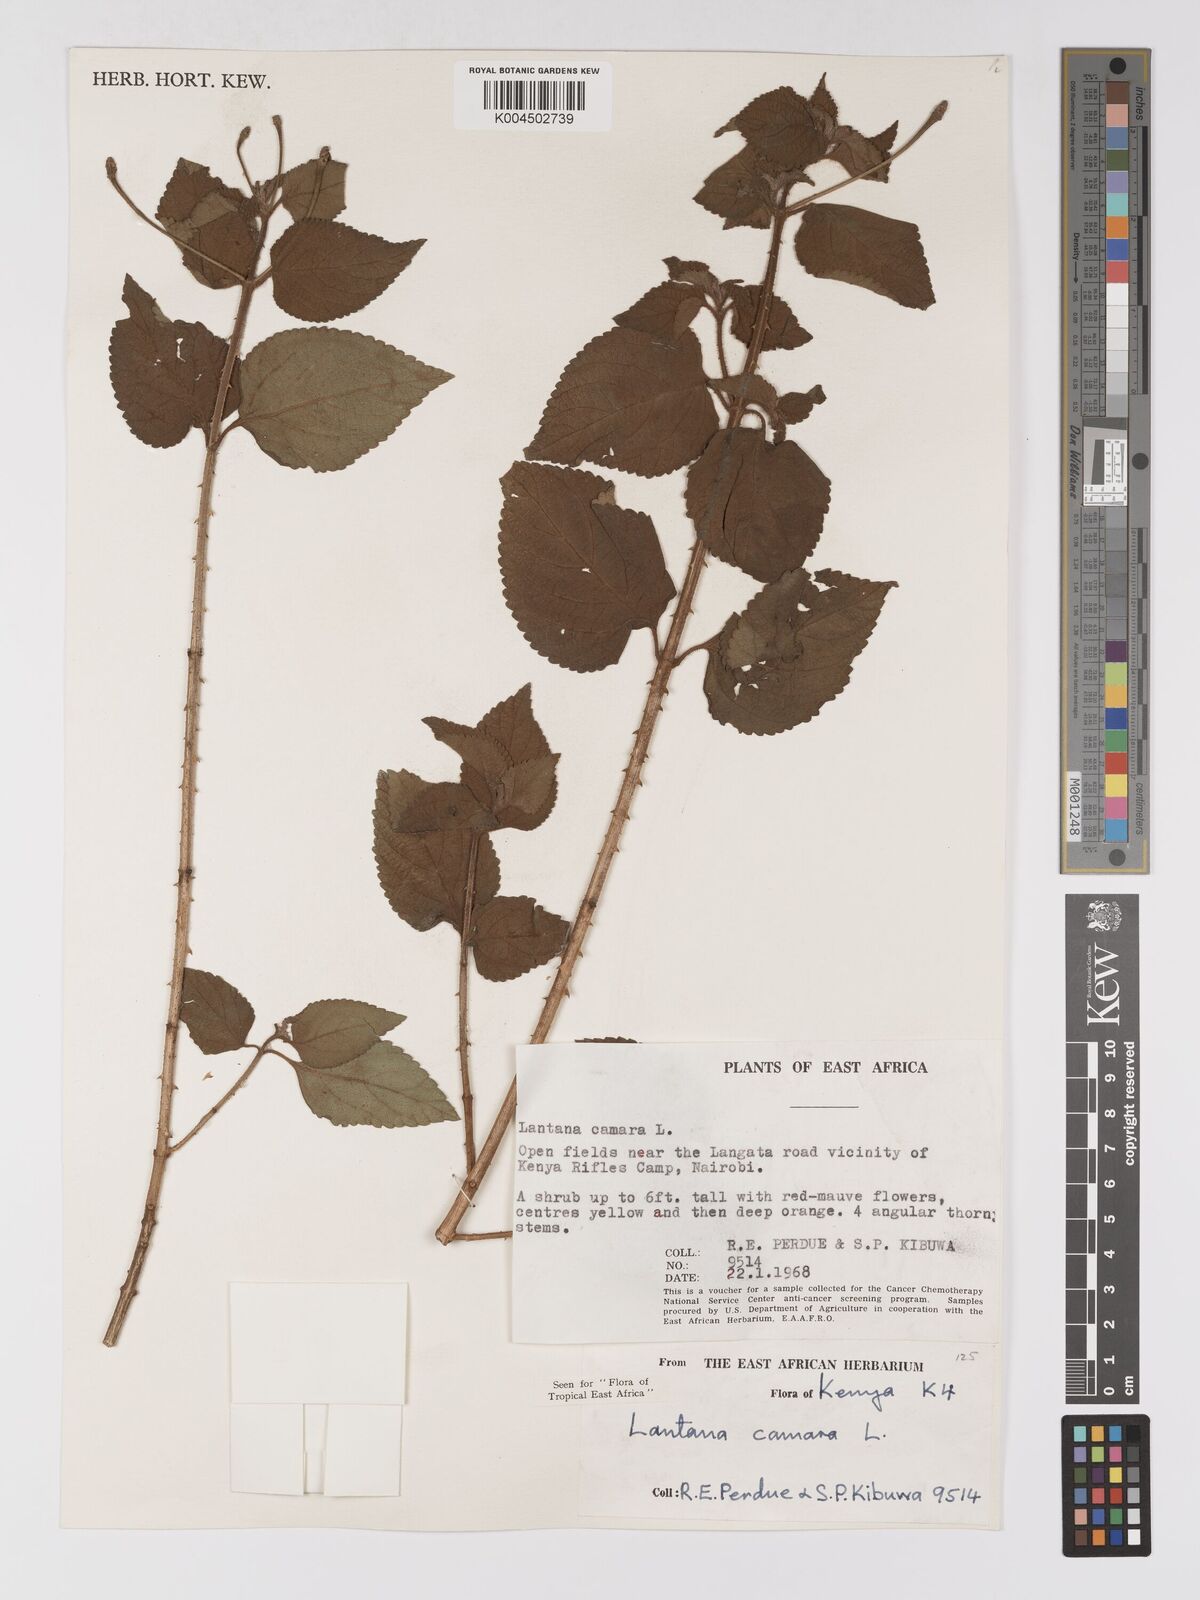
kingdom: Plantae
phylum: Tracheophyta
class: Magnoliopsida
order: Lamiales
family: Verbenaceae
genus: Lantana
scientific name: Lantana camara
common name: Lantana
